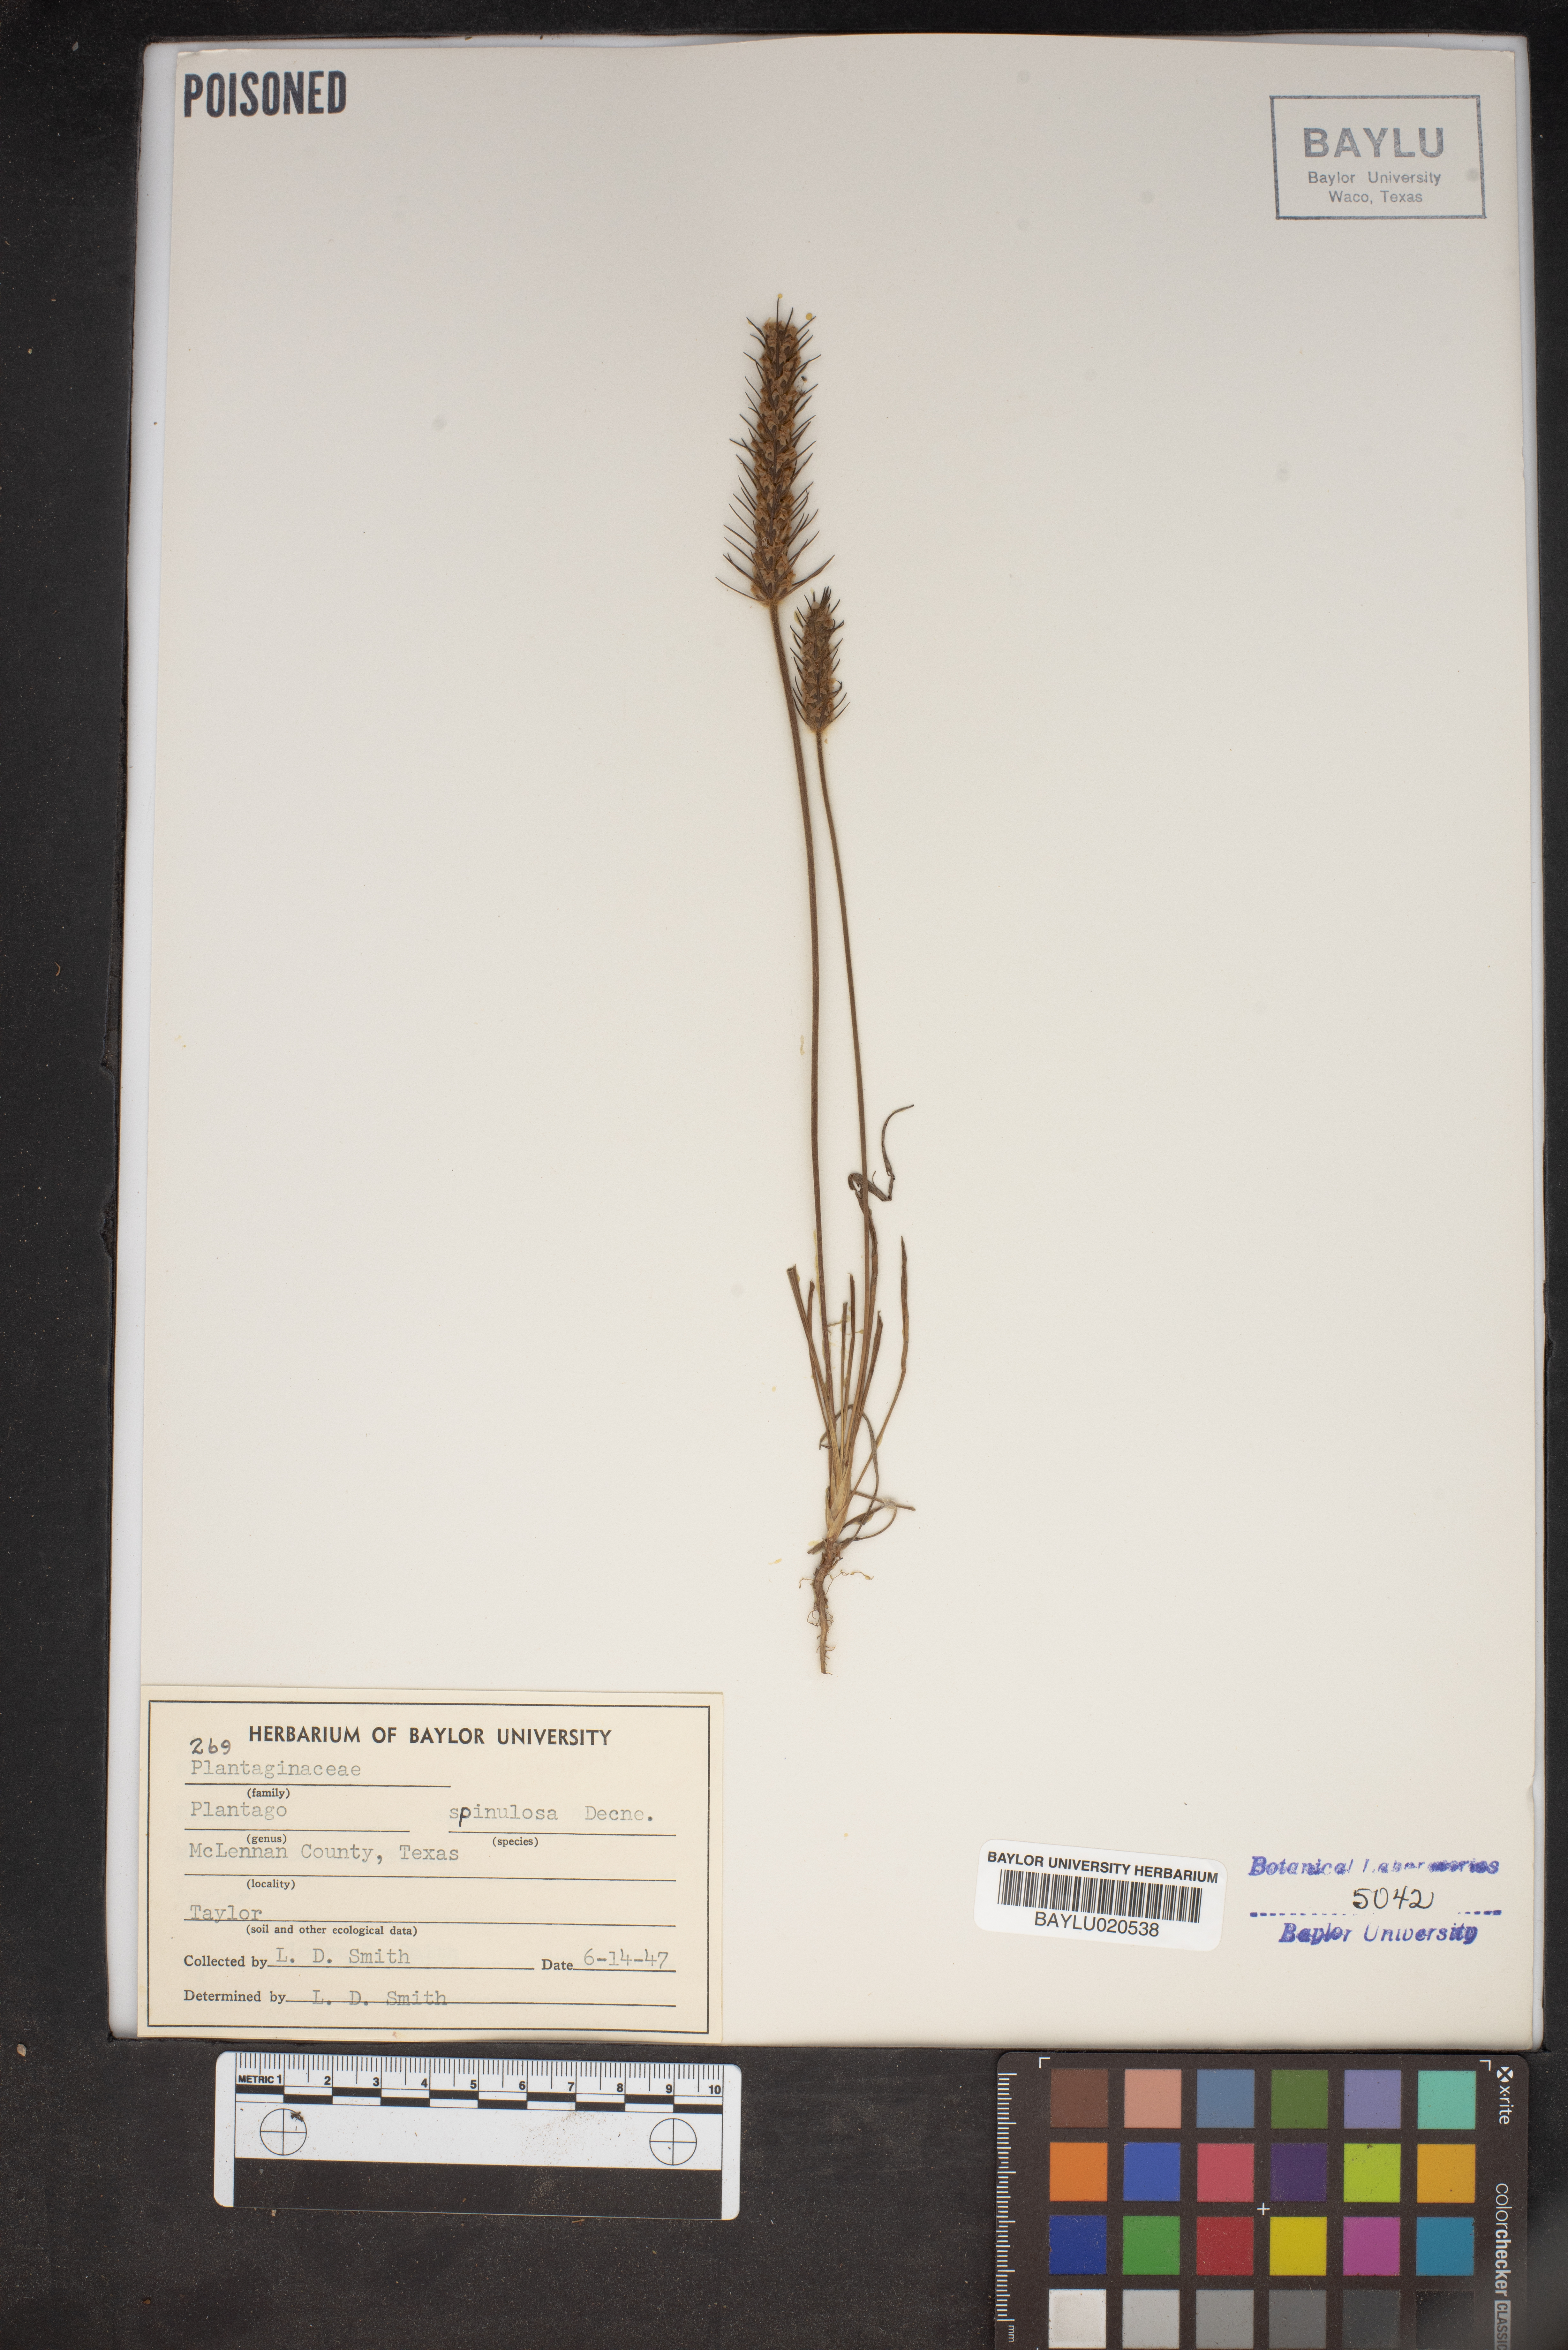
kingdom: Plantae
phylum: Tracheophyta
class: Magnoliopsida
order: Lamiales
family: Plantaginaceae
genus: Plantago
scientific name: Plantago patagonica
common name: Patagonia indian-wheat
